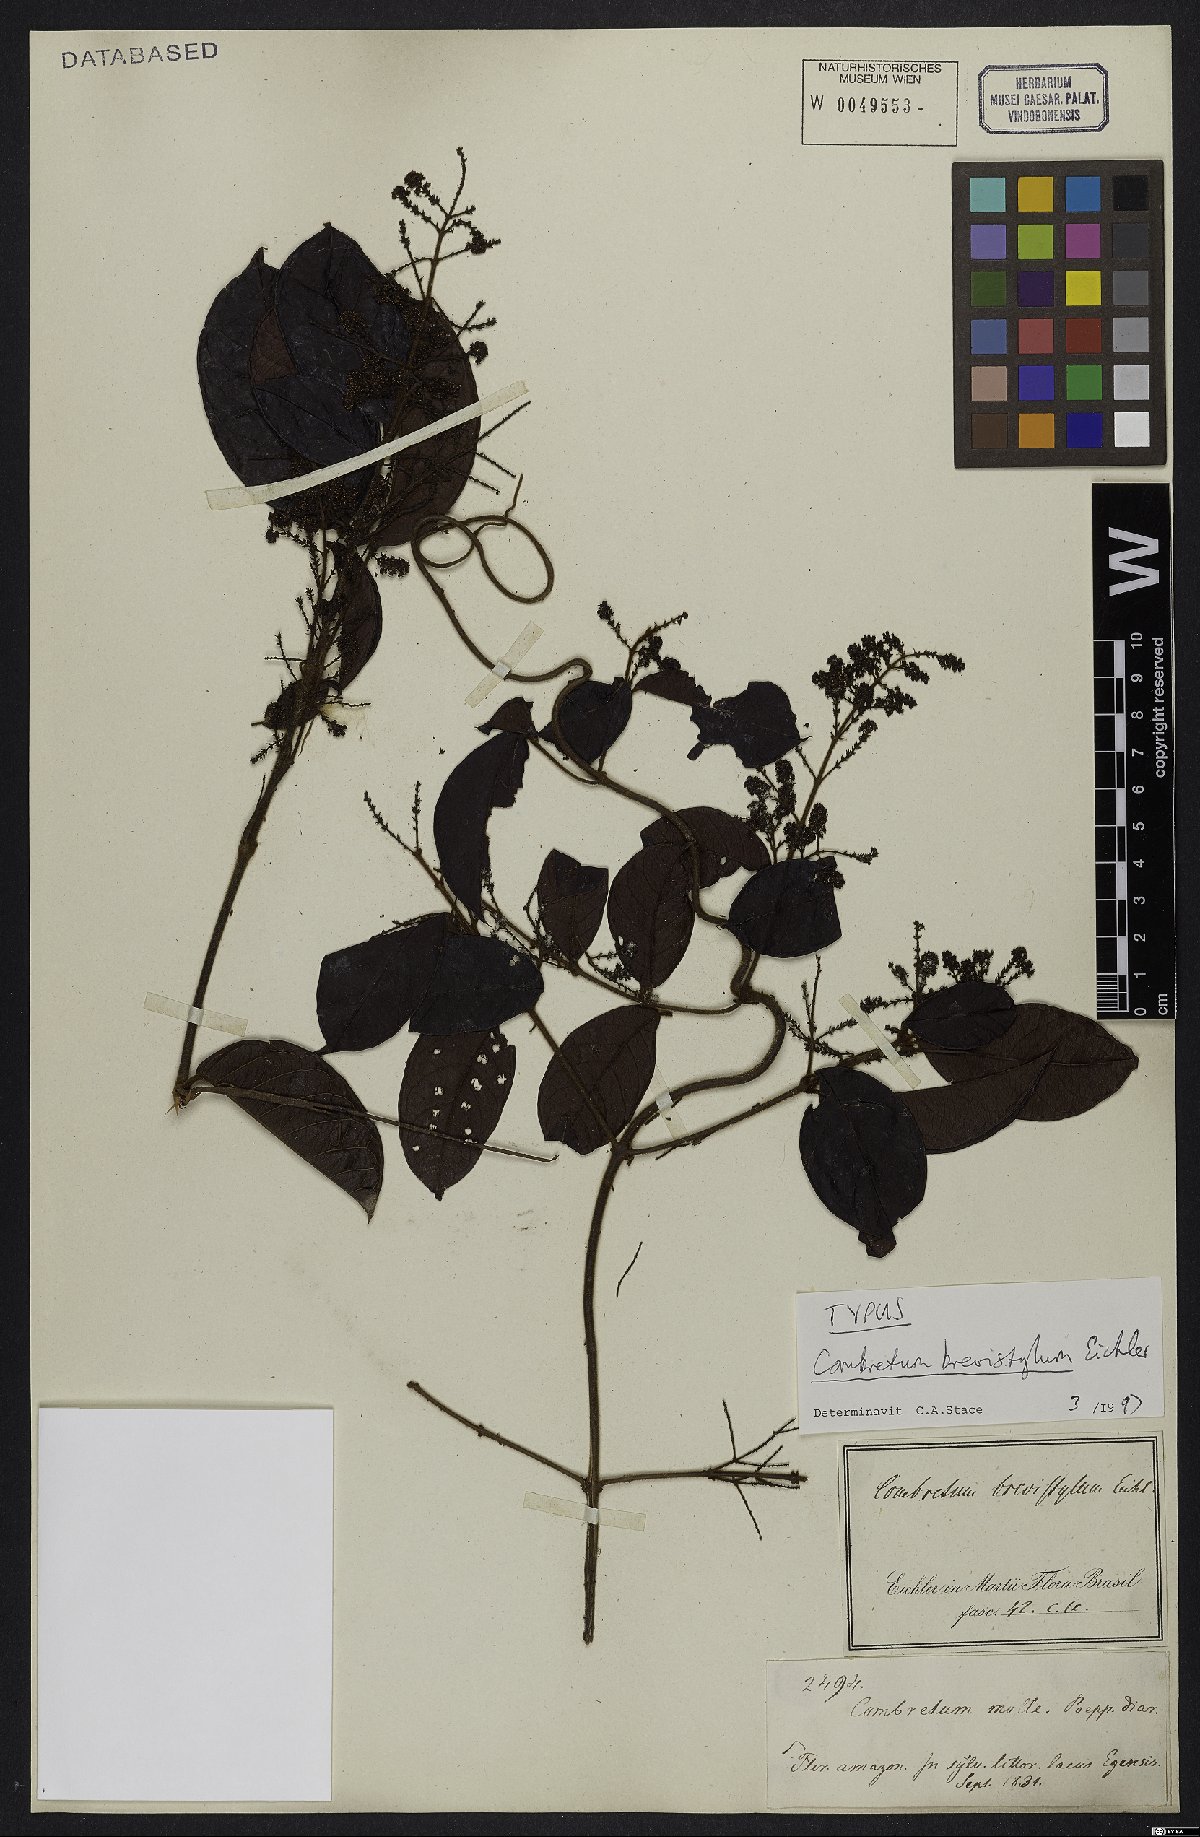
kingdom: Plantae
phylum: Tracheophyta
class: Magnoliopsida
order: Myrtales
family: Combretaceae
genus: Combretum
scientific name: Combretum brevistylum
